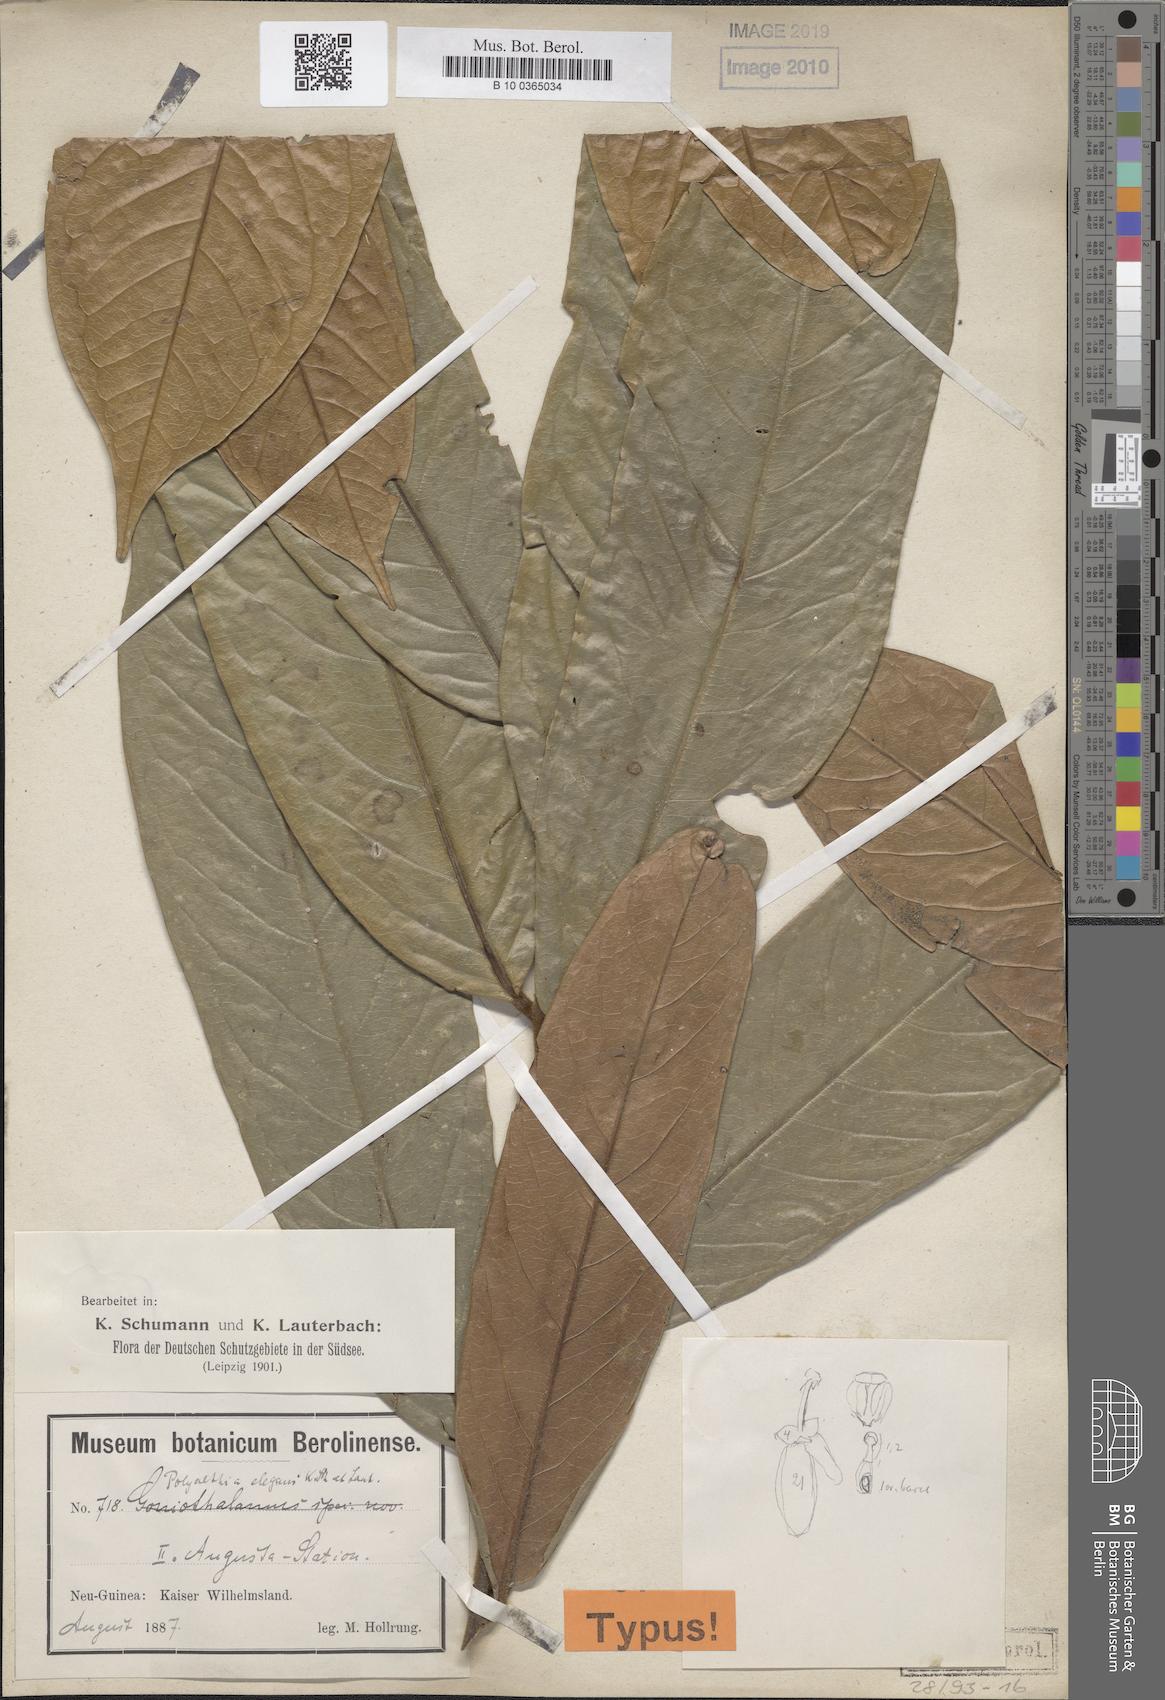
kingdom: Plantae
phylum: Tracheophyta
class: Magnoliopsida
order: Magnoliales
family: Annonaceae
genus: Polyalthia
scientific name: Polyalthia elegans
